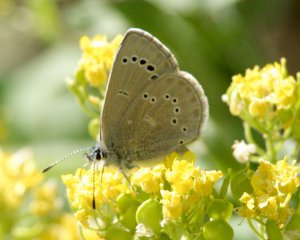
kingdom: Animalia
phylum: Arthropoda
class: Insecta
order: Lepidoptera
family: Lycaenidae
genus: Glaucopsyche
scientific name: Glaucopsyche lygdamus
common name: Silvery Blue
